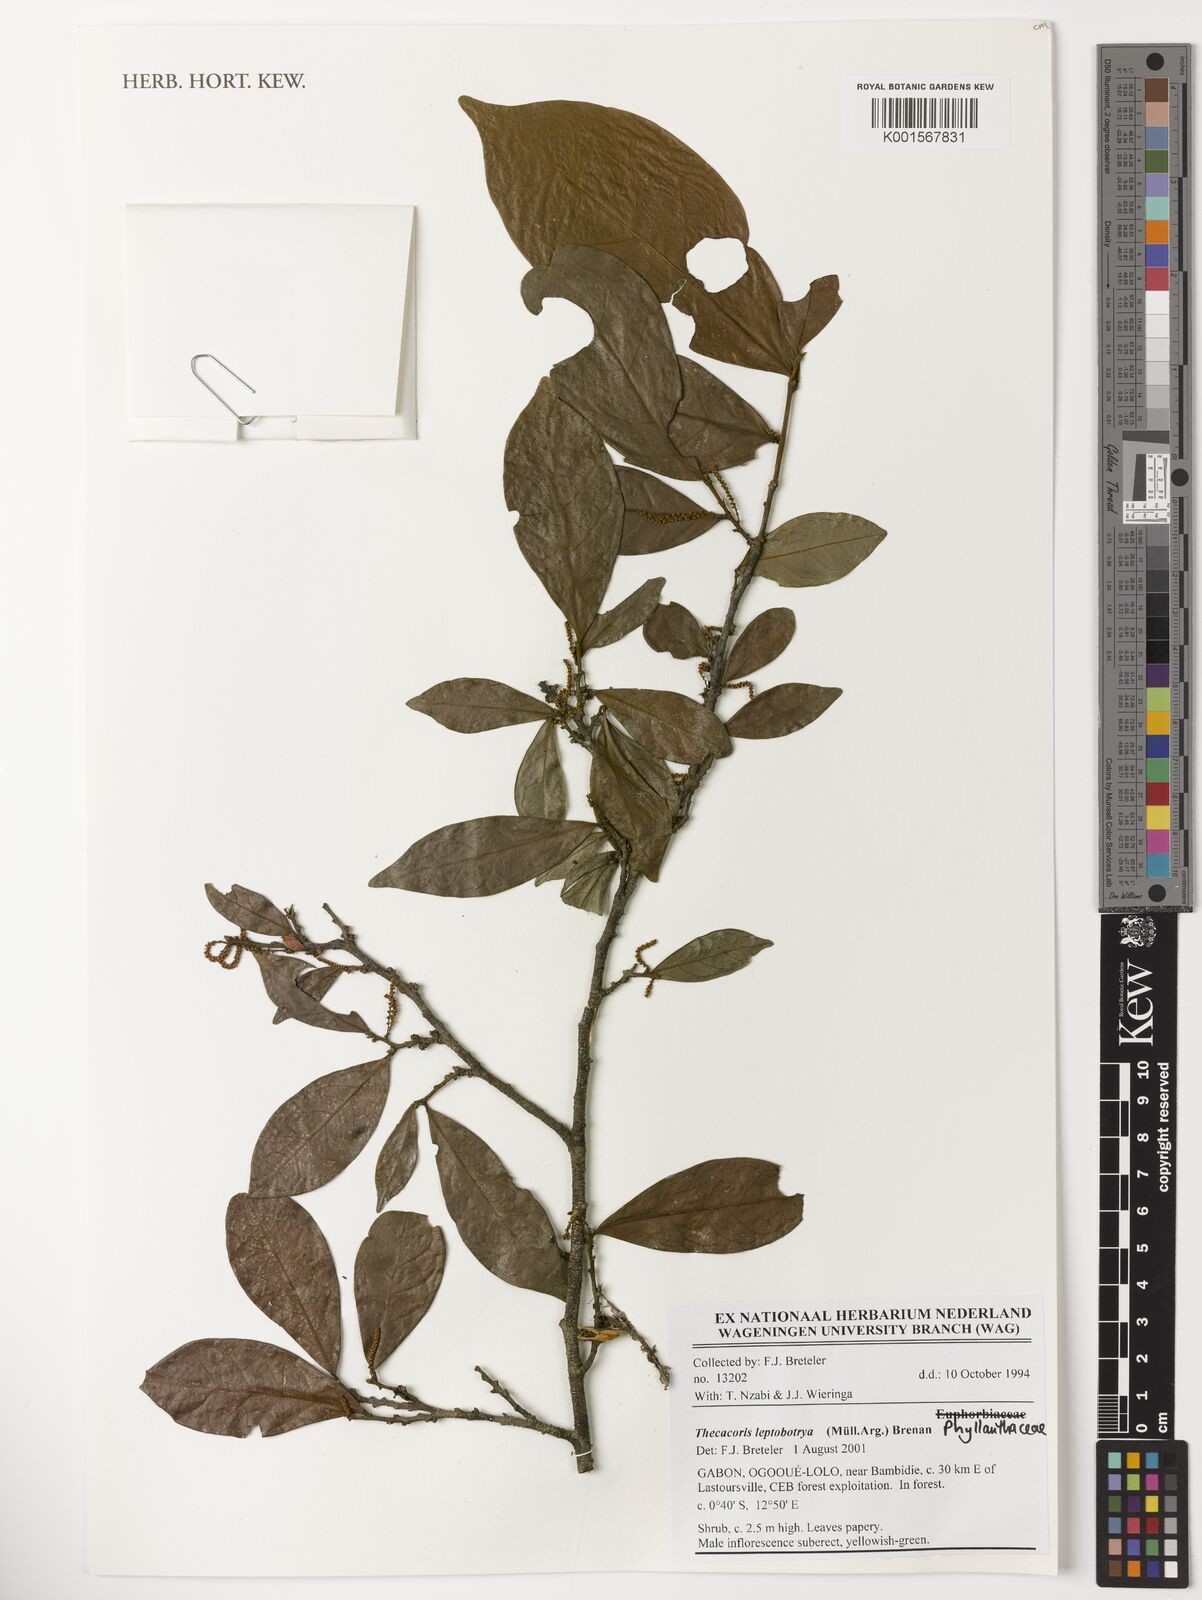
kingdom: Plantae
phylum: Tracheophyta
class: Magnoliopsida
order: Malpighiales
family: Phyllanthaceae
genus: Thecacoris
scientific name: Thecacoris leptobotrya
